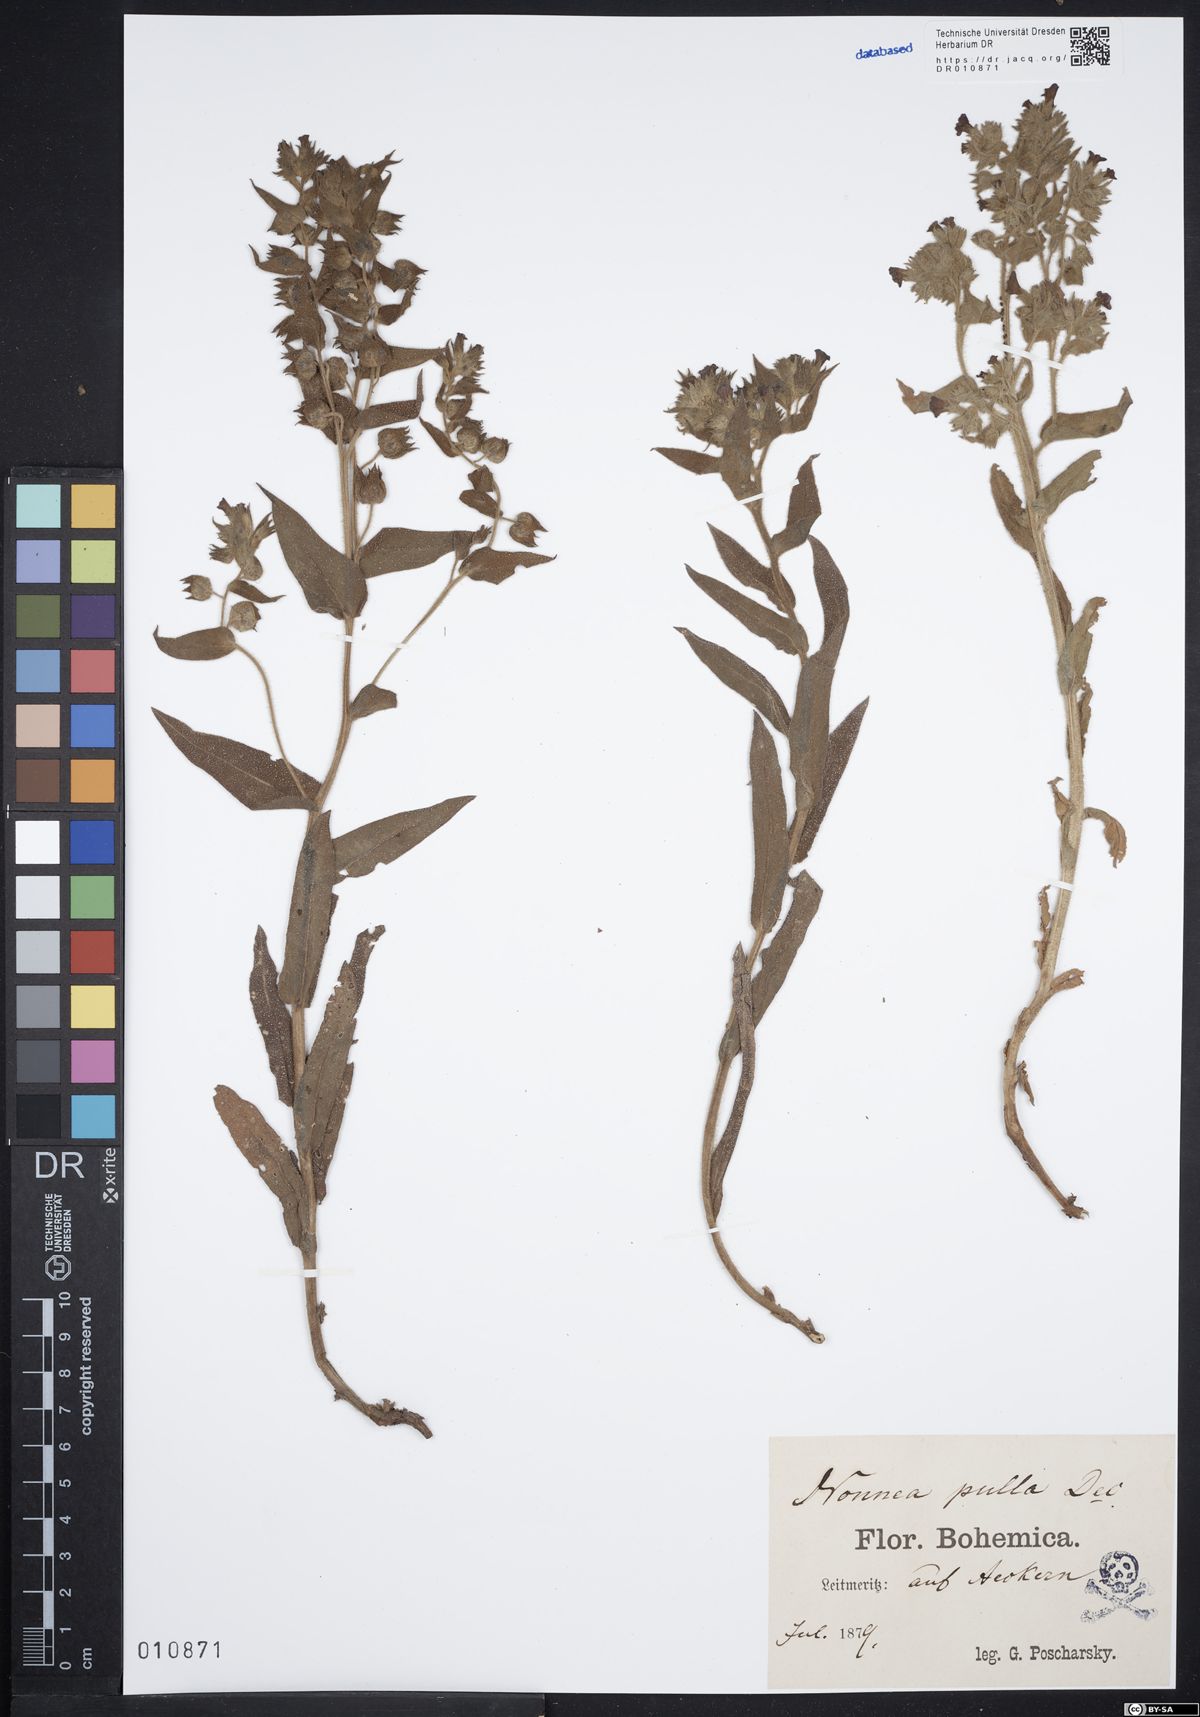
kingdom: Plantae
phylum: Tracheophyta
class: Magnoliopsida
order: Boraginales
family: Boraginaceae
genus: Nonea
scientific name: Nonea pulla
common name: Brown nonea
